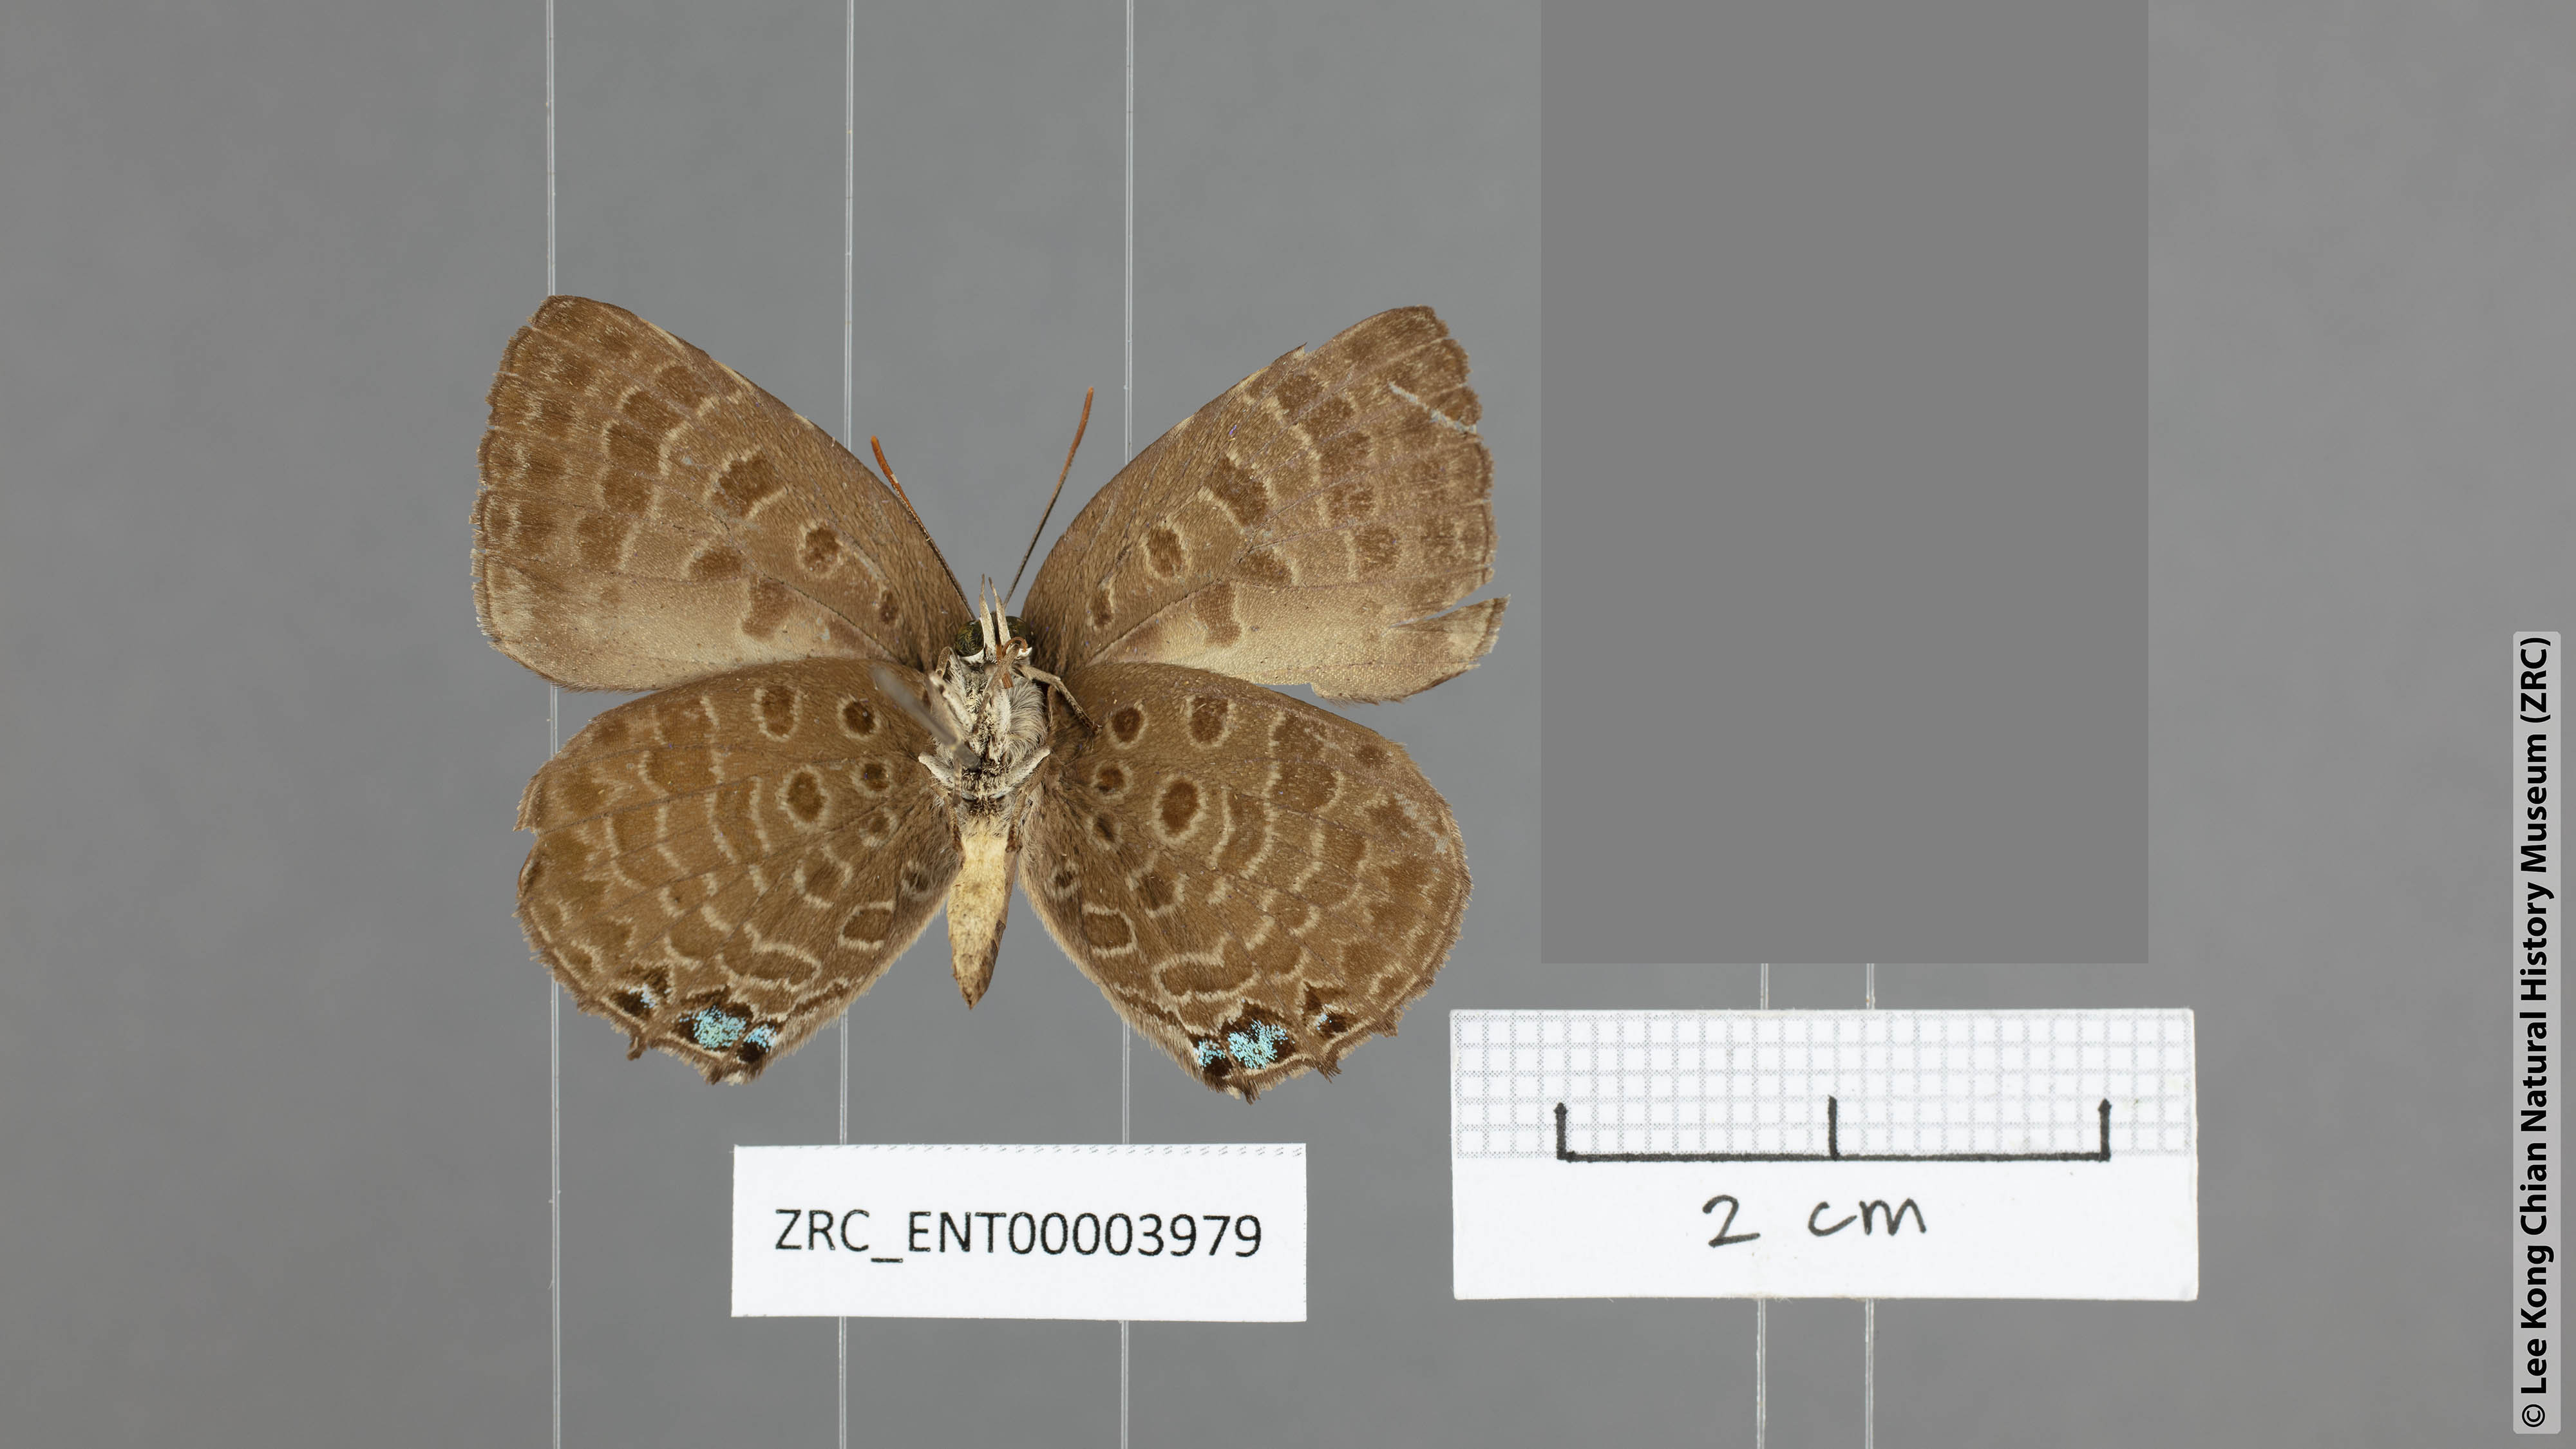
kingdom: Animalia
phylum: Arthropoda
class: Insecta
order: Lepidoptera
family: Lycaenidae
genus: Arhopala
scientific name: Arhopala labuana
